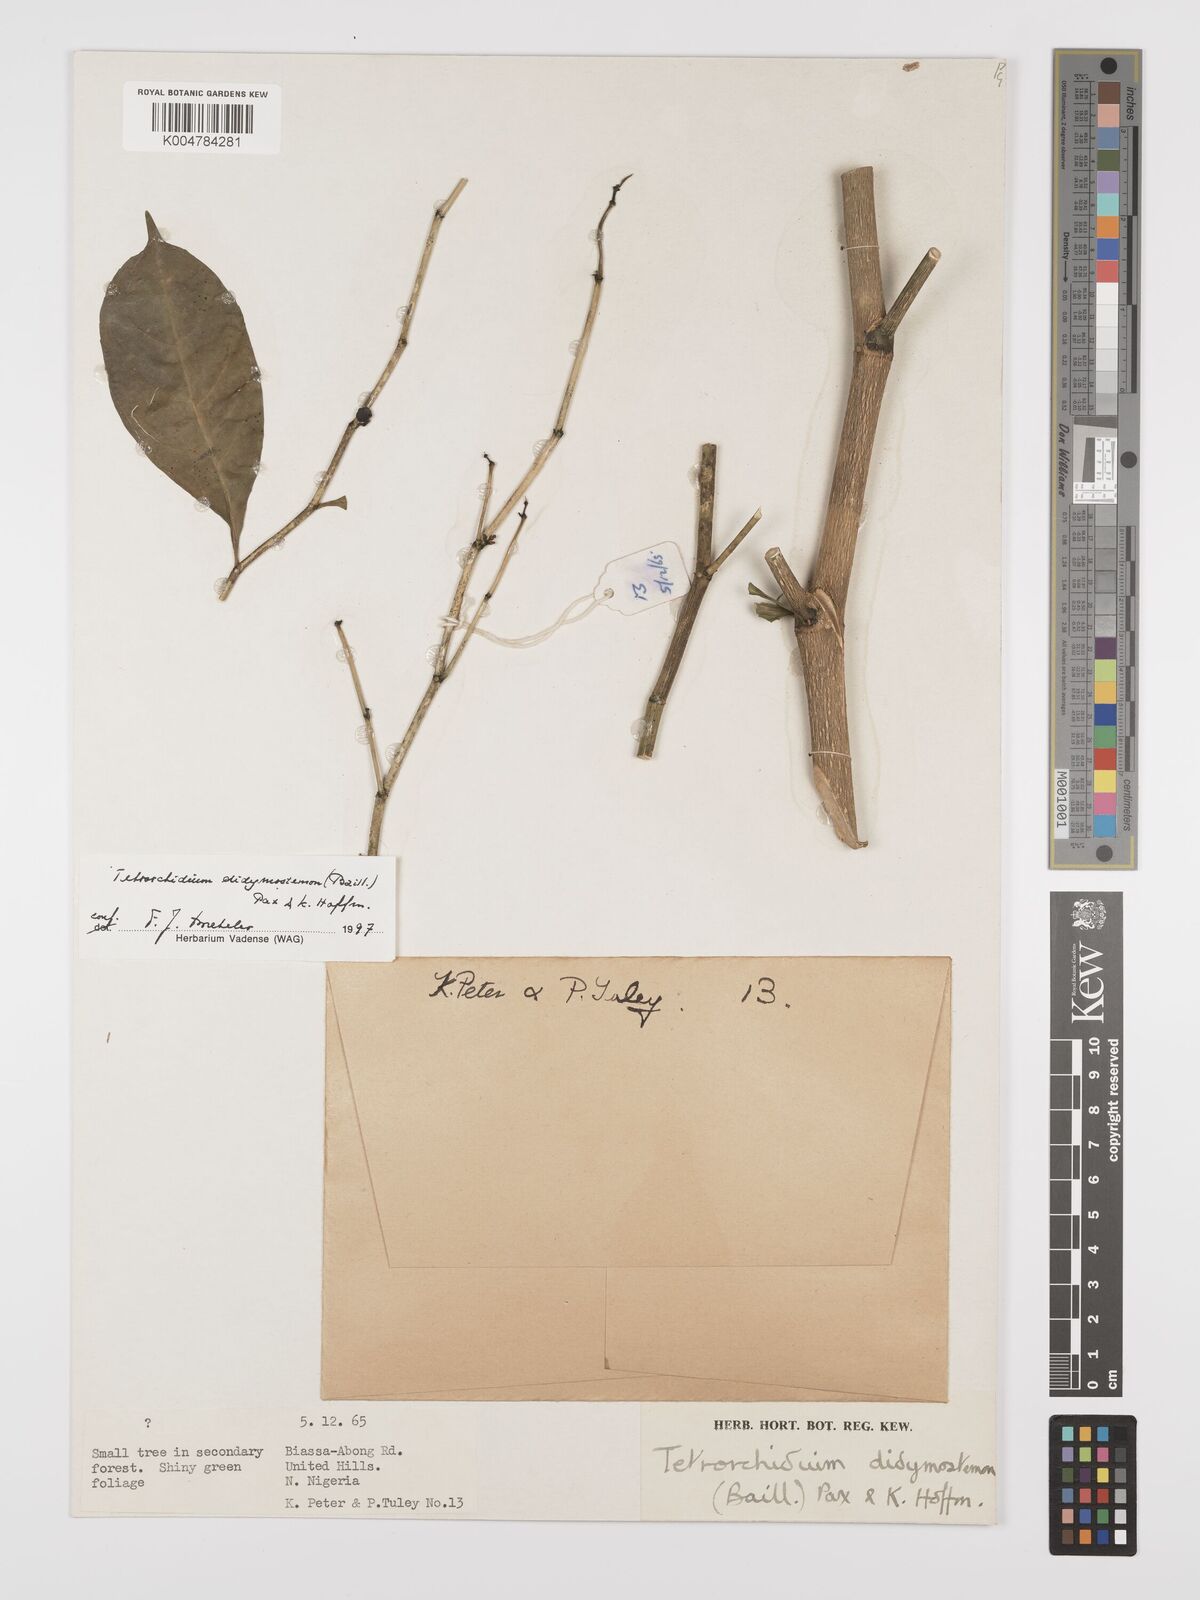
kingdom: Plantae
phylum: Tracheophyta
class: Magnoliopsida
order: Malpighiales
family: Euphorbiaceae
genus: Tetrorchidium
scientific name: Tetrorchidium didymostemon
